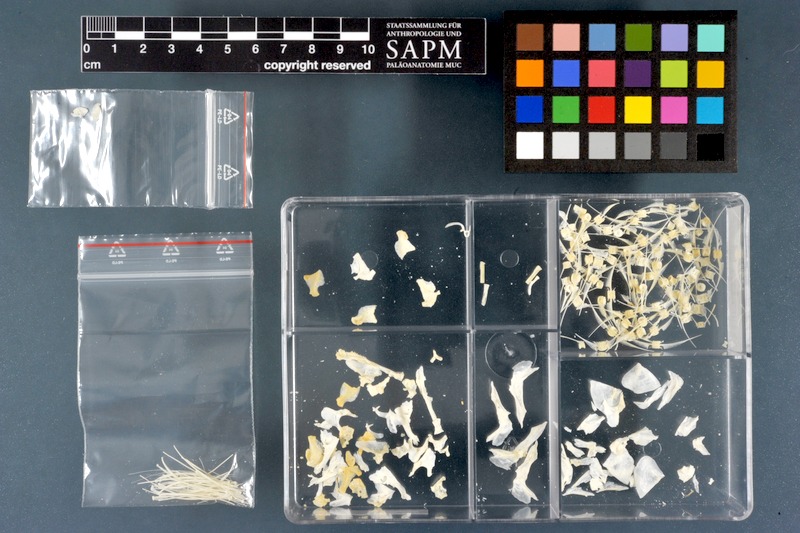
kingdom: Animalia
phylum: Chordata
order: Osteoglossiformes
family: Mormyridae
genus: Petrocephalus
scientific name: Petrocephalus bane
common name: Bane mormyrid
